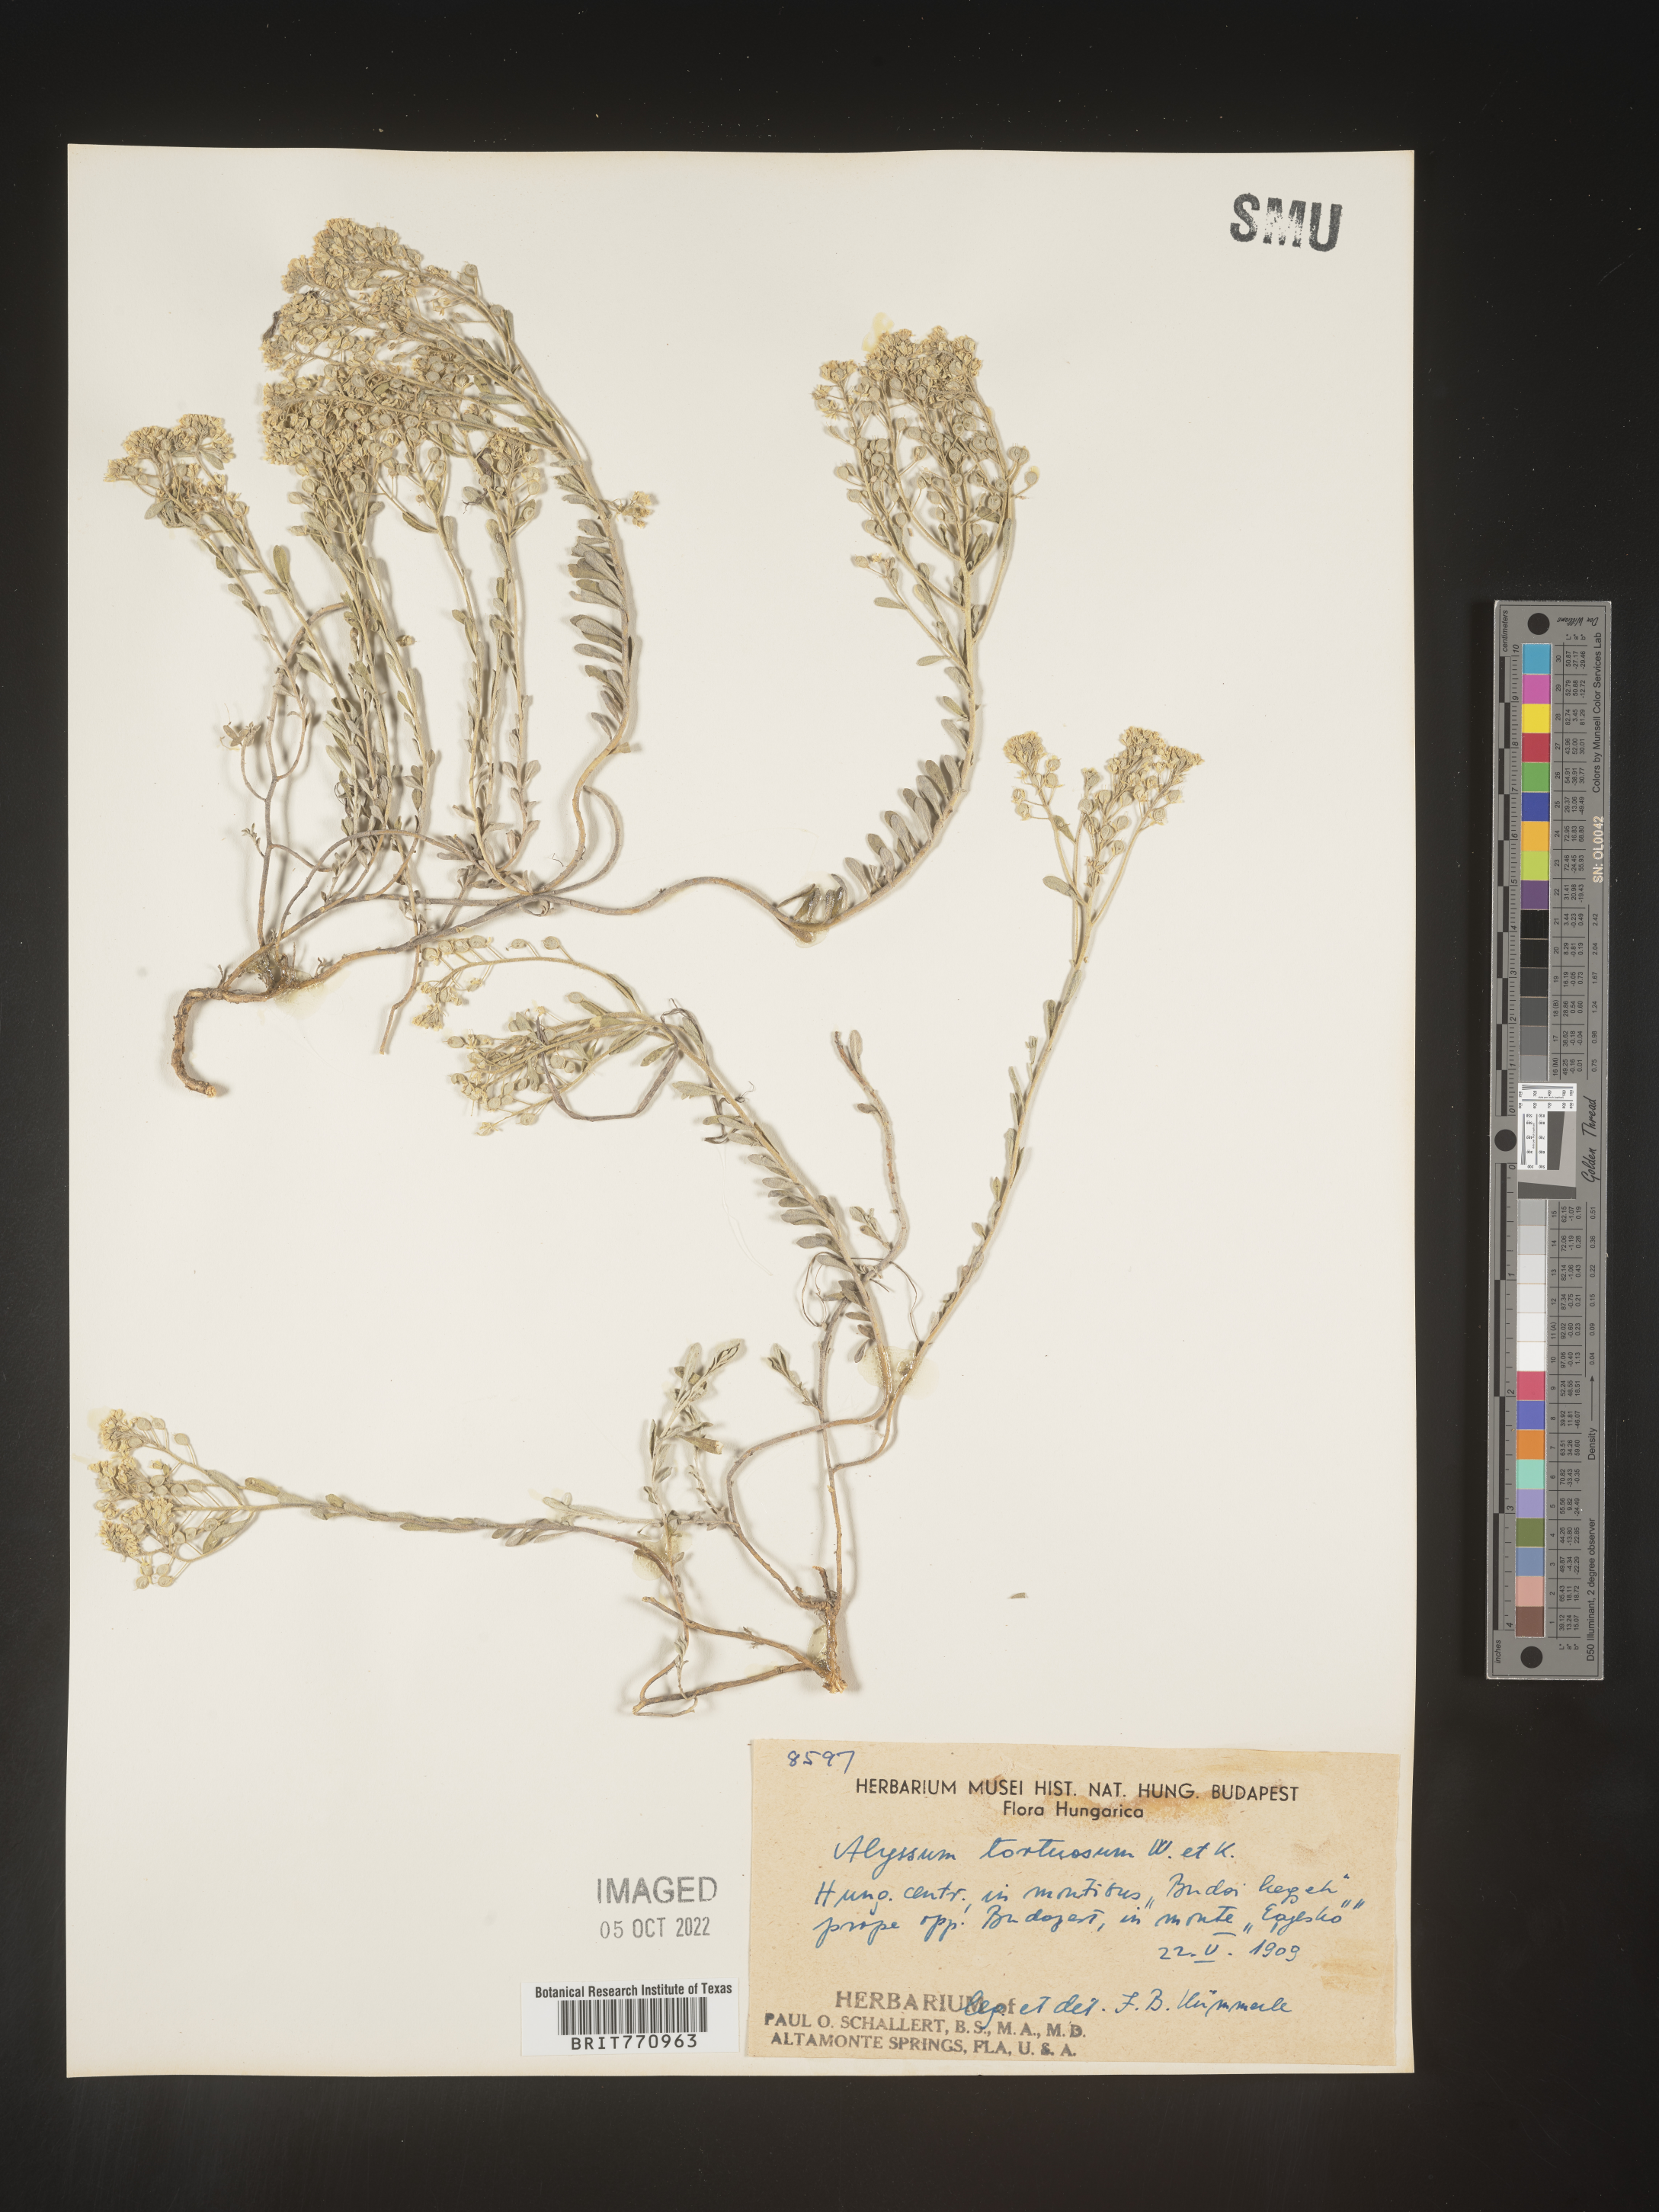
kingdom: Plantae
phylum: Tracheophyta
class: Magnoliopsida
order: Brassicales
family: Brassicaceae
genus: Alyssum
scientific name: Alyssum
